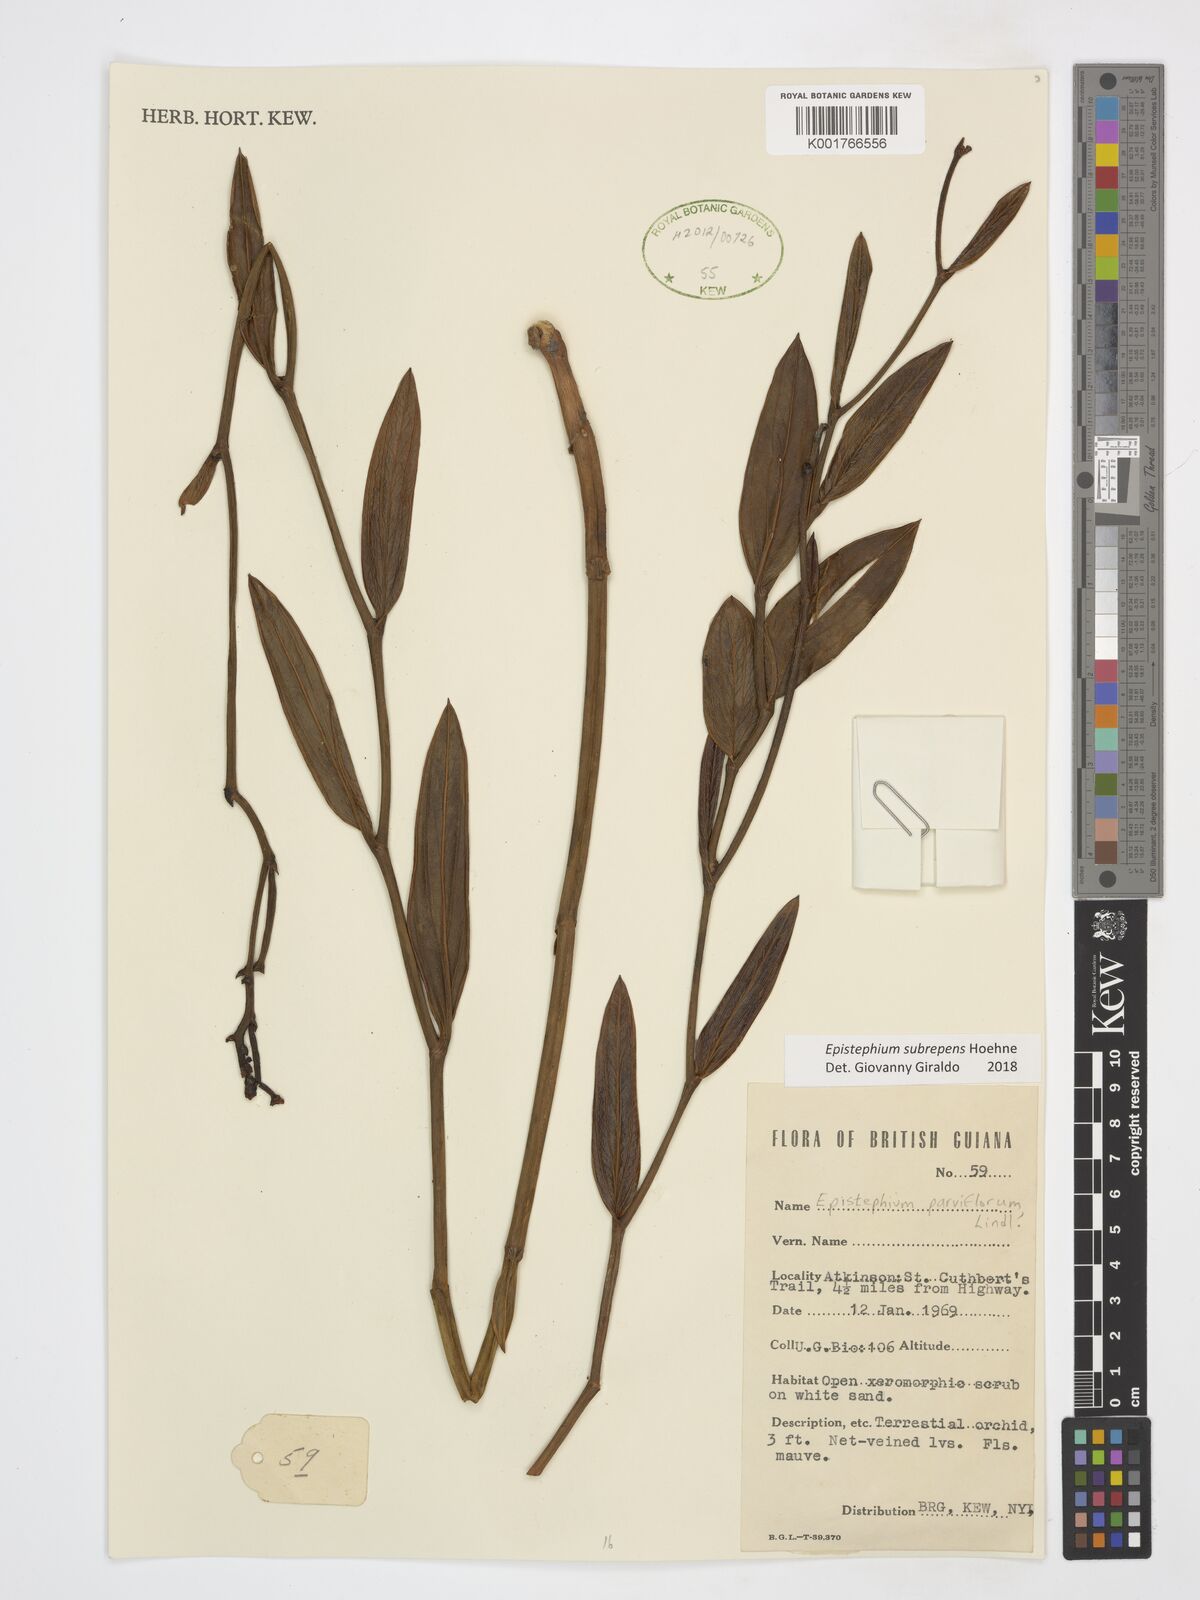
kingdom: Plantae
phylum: Tracheophyta
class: Liliopsida
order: Asparagales
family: Orchidaceae
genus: Epistephium
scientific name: Epistephium subrepens
